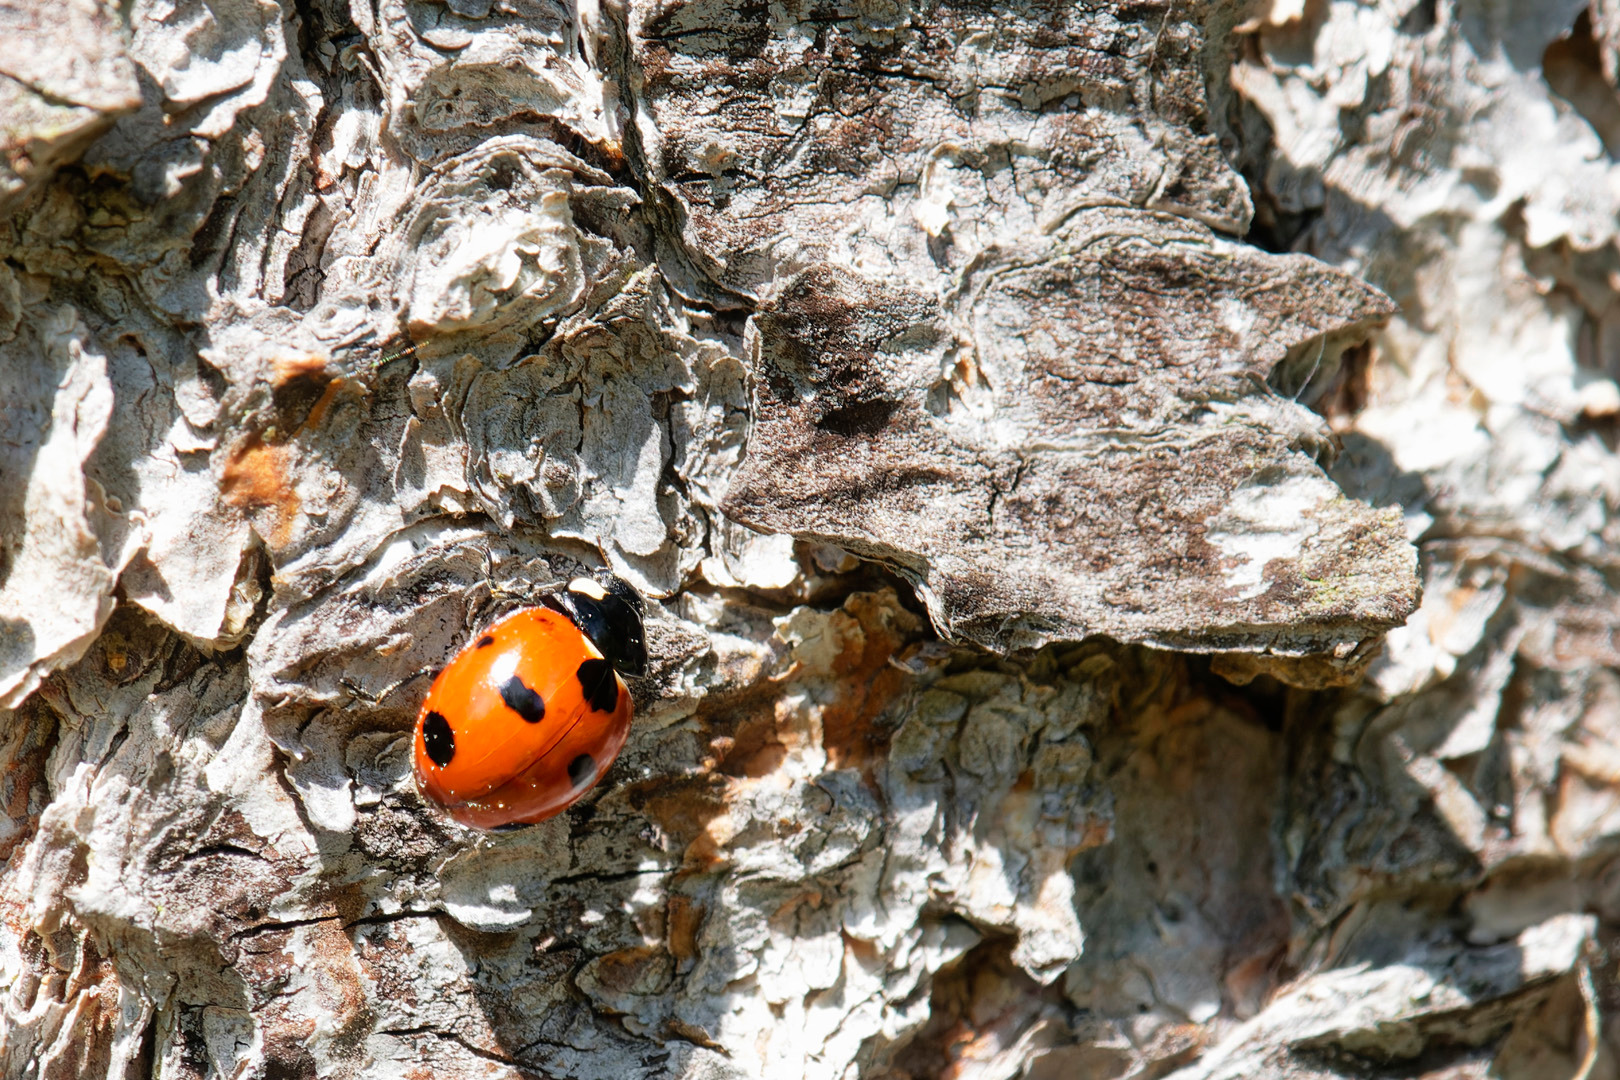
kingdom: Animalia
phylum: Arthropoda
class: Insecta
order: Coleoptera
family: Coccinellidae
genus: Coccinella
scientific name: Coccinella magnifica
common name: Myremariehøne
